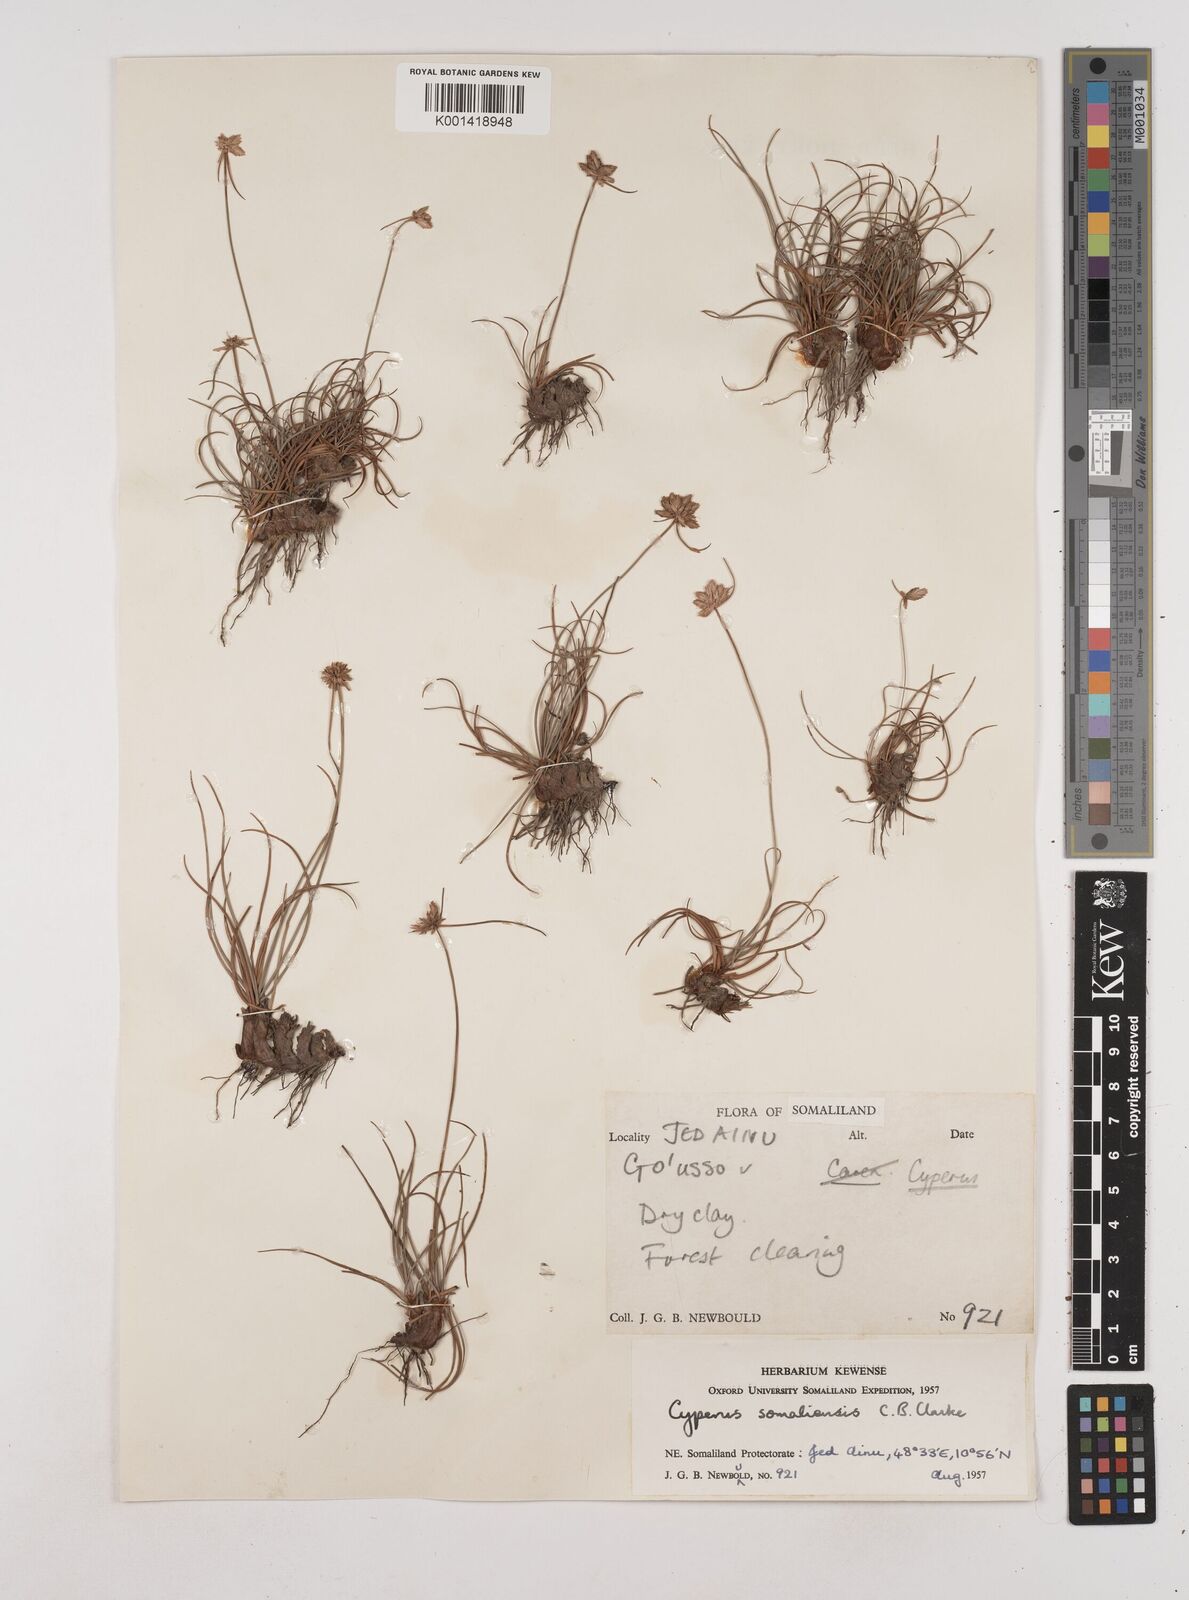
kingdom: Plantae
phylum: Tracheophyta
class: Liliopsida
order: Poales
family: Cyperaceae
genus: Cyperus
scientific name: Cyperus somaliensis
